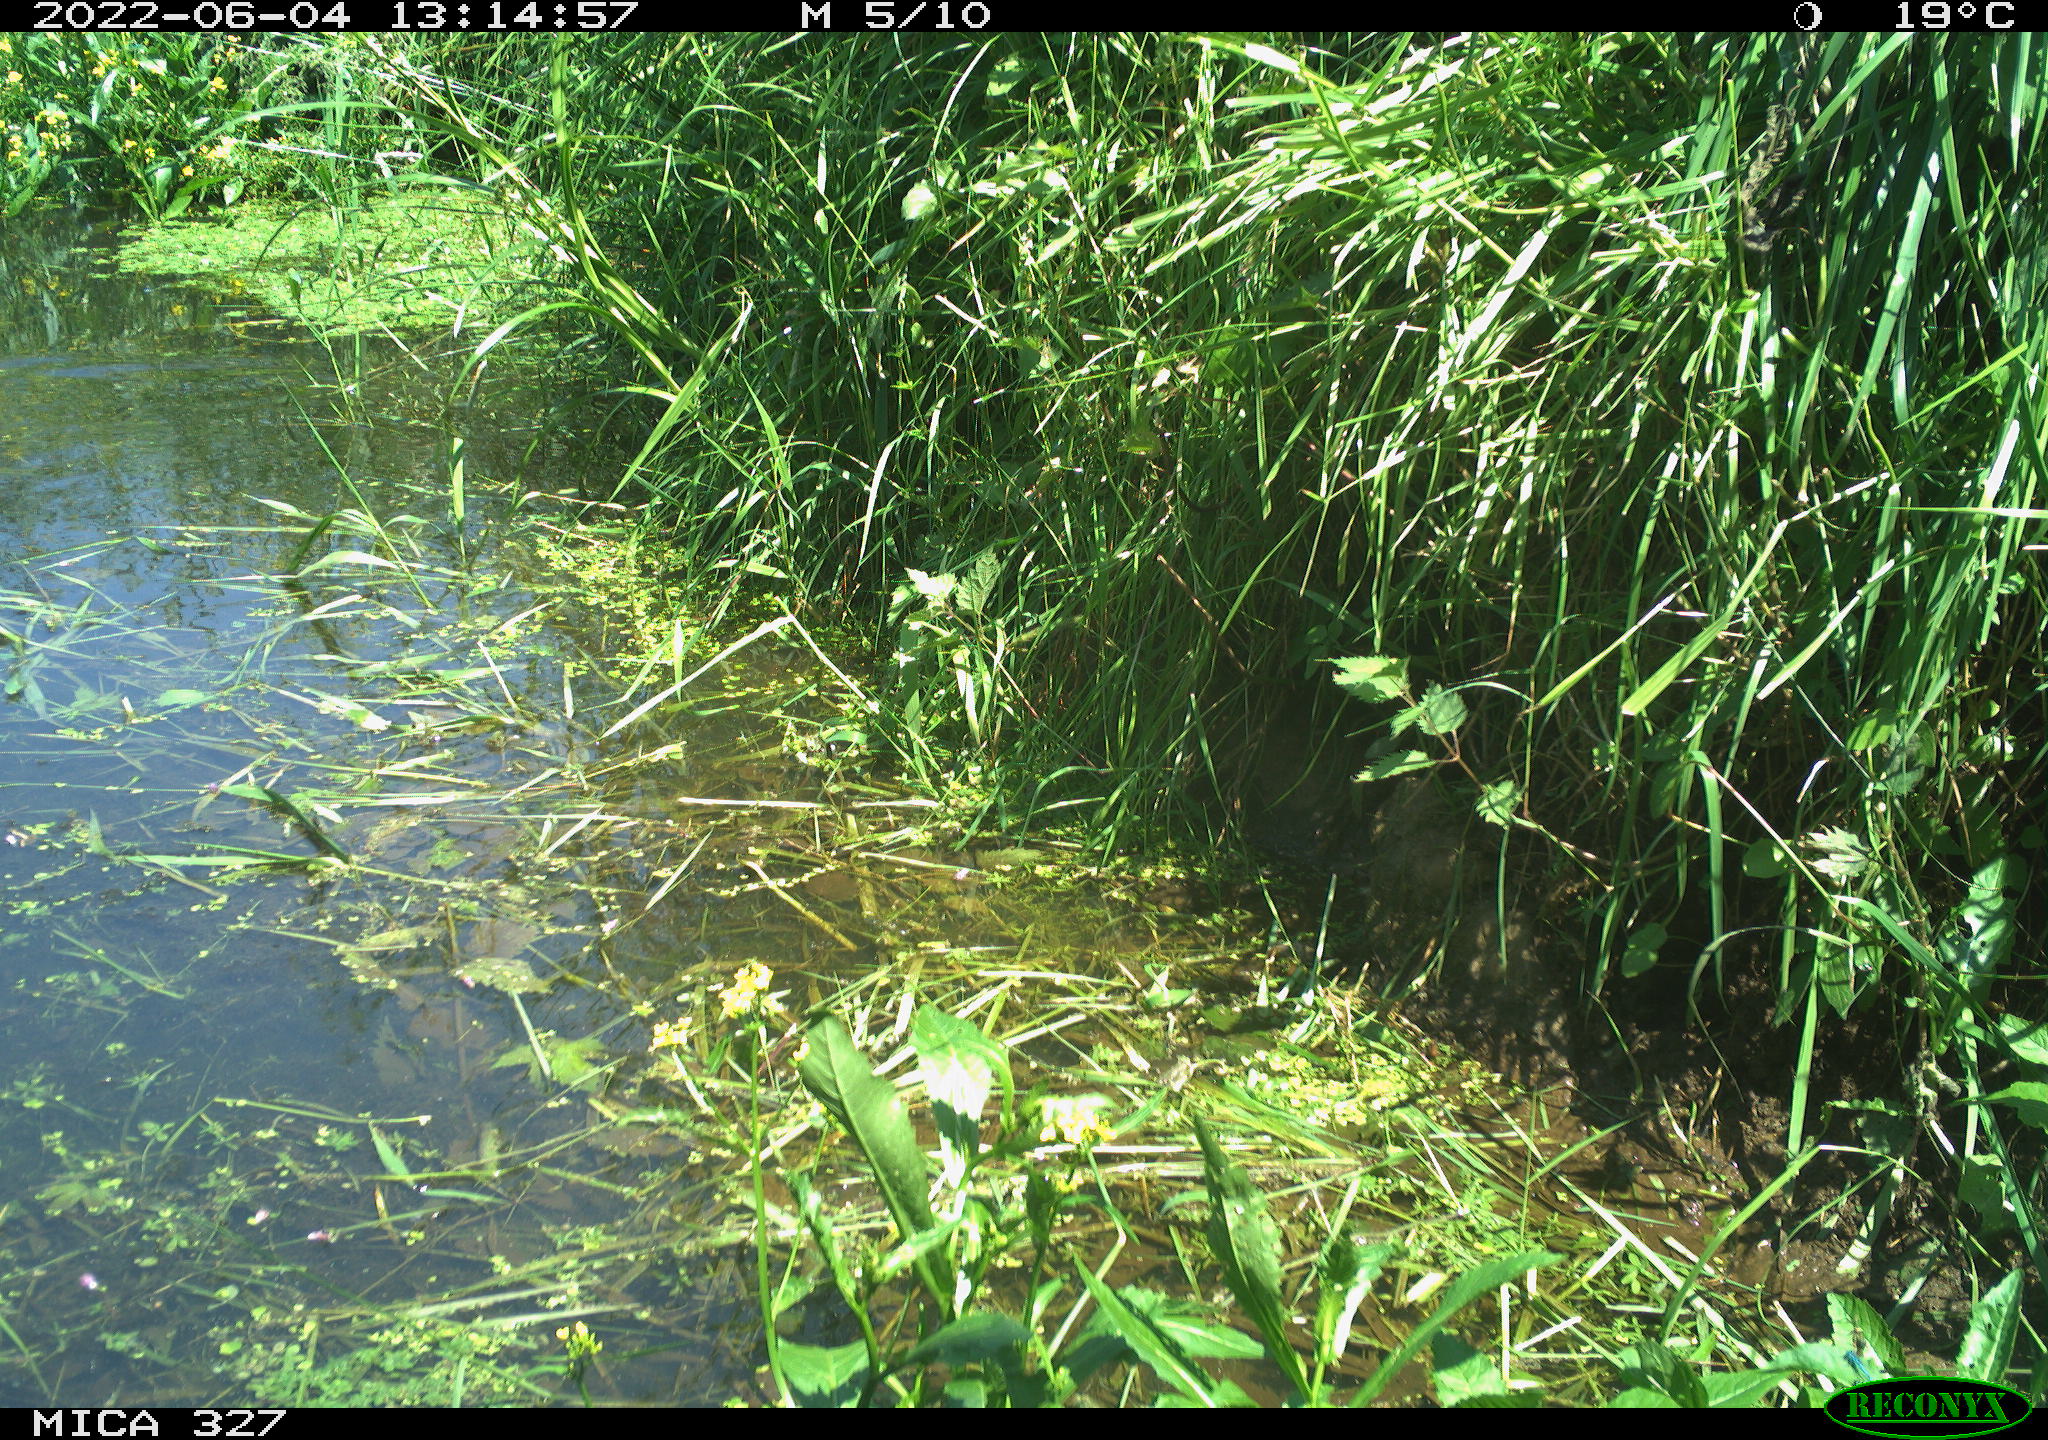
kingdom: Animalia
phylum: Chordata
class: Aves
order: Gruiformes
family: Rallidae
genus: Gallinula
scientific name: Gallinula chloropus
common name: Common moorhen
